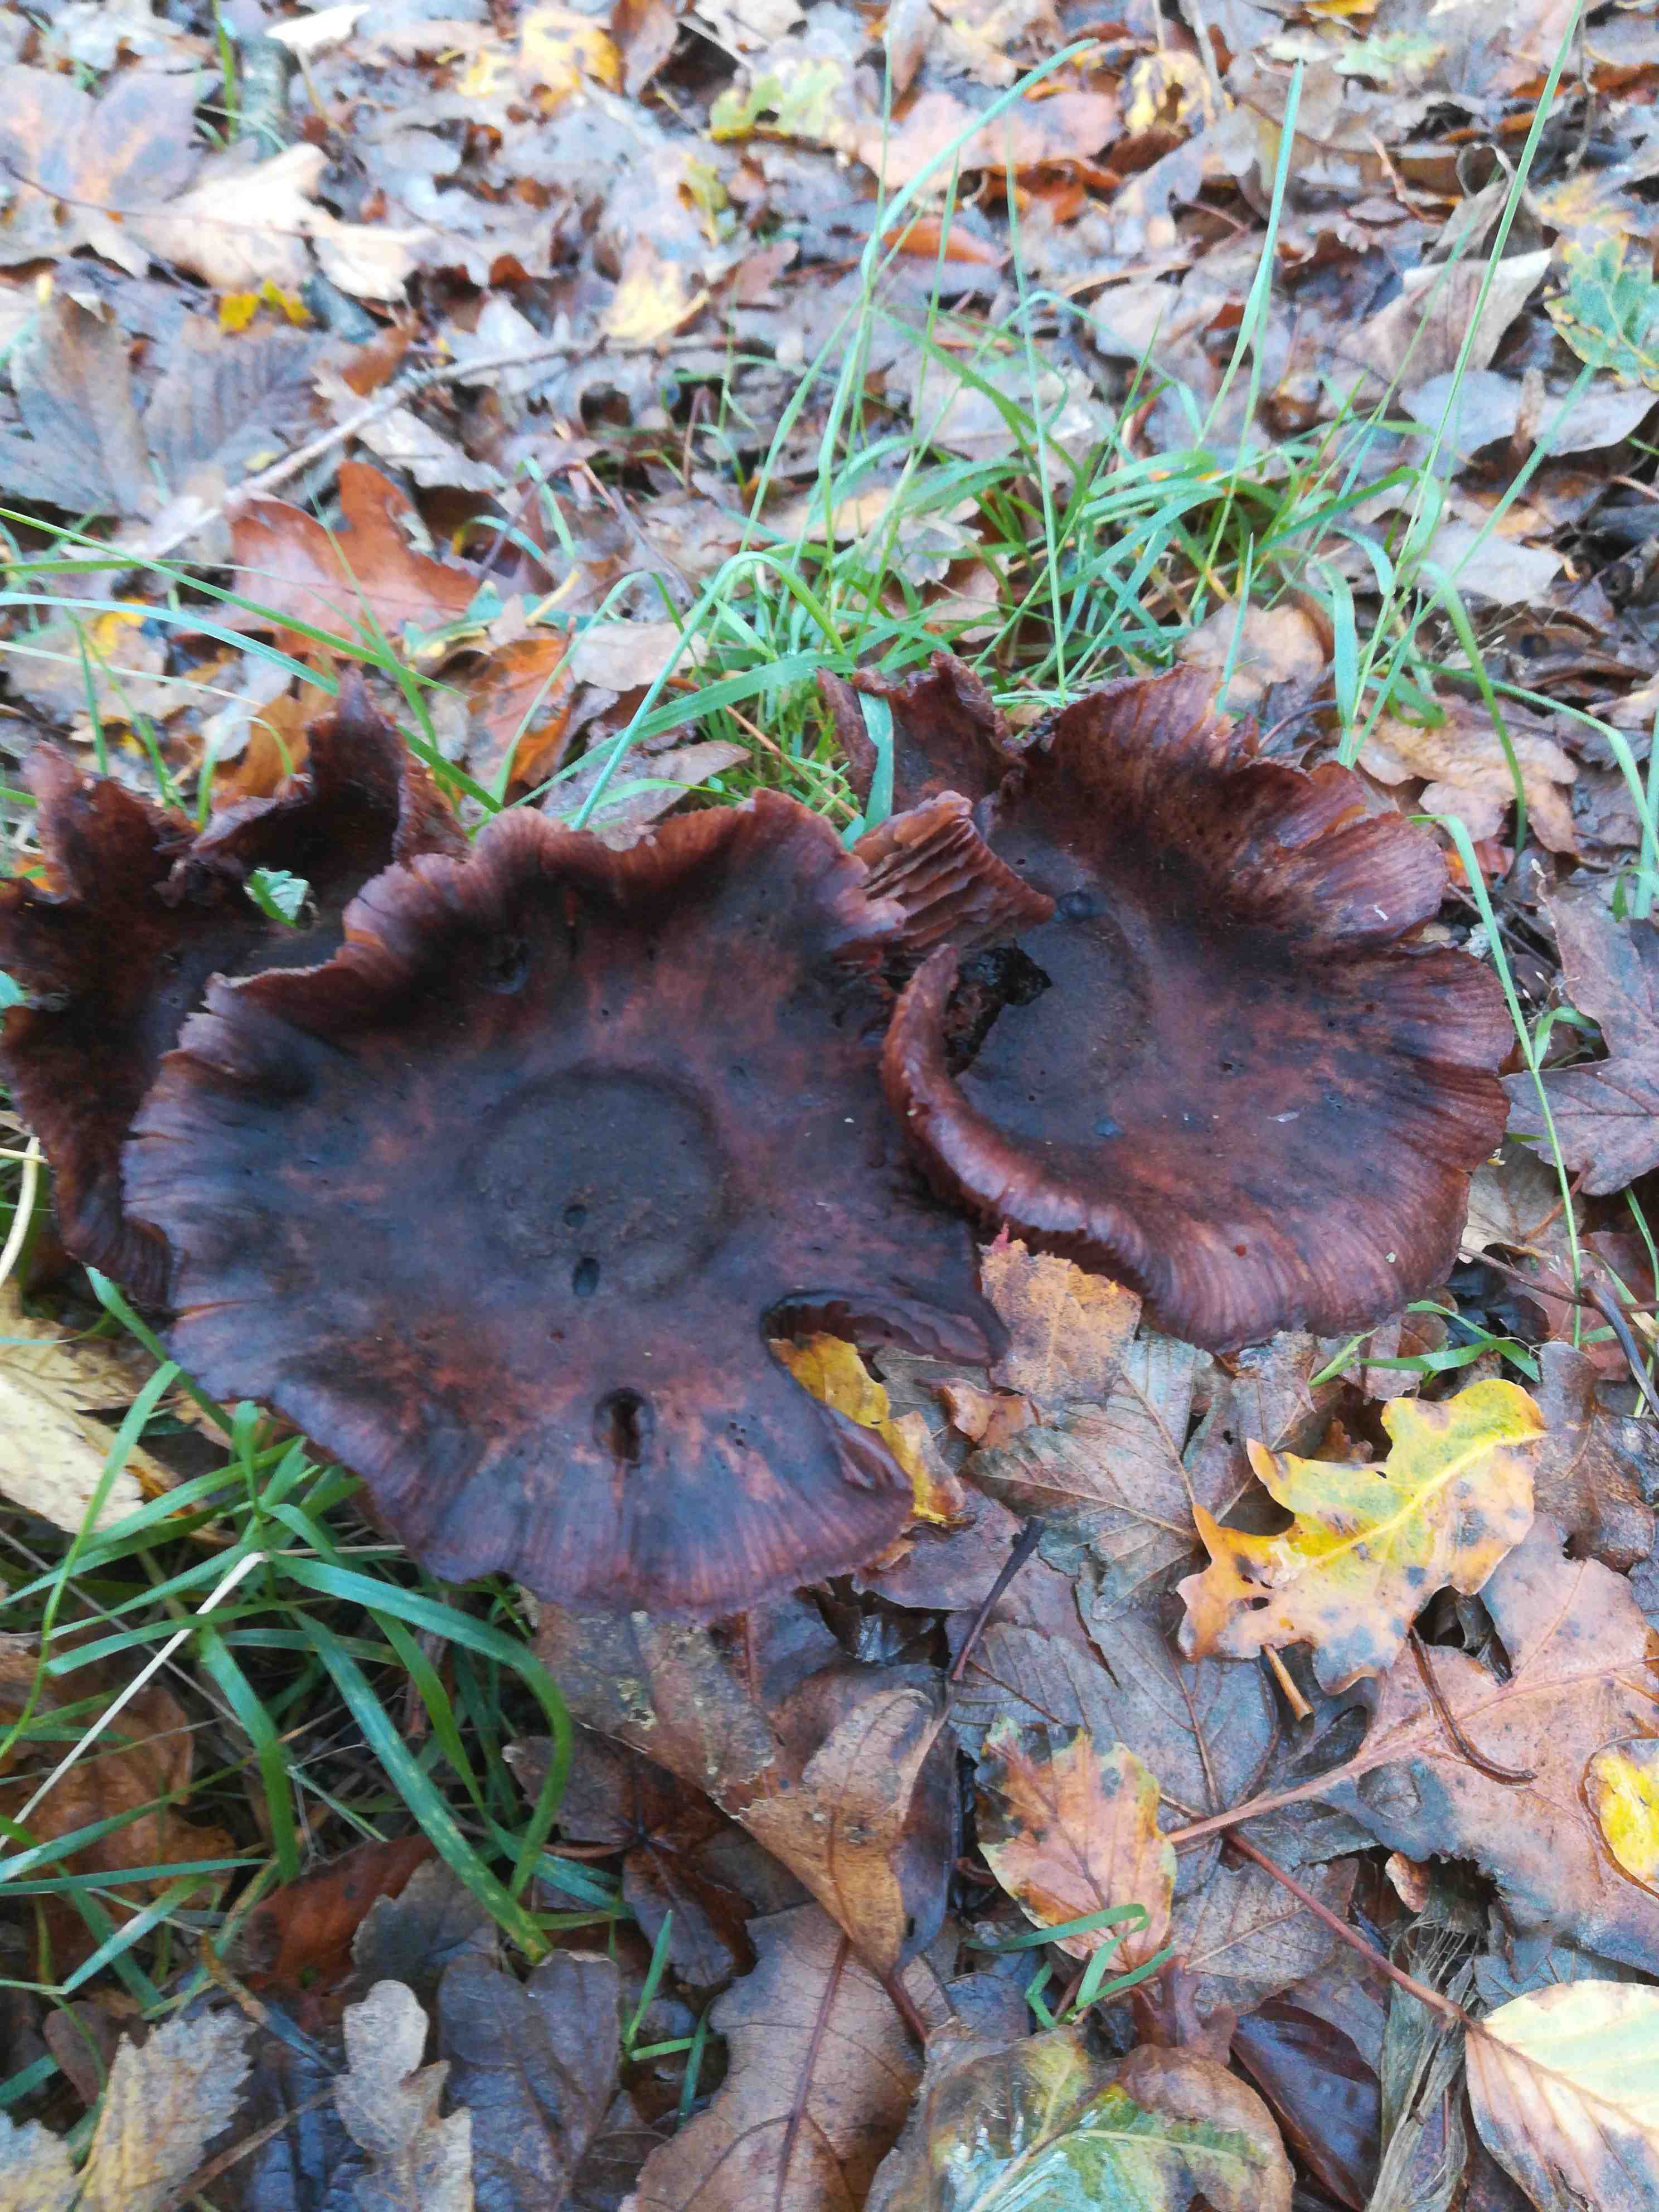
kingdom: Fungi
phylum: Basidiomycota
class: Agaricomycetes
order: Agaricales
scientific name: Agaricales
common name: champignonordenen
